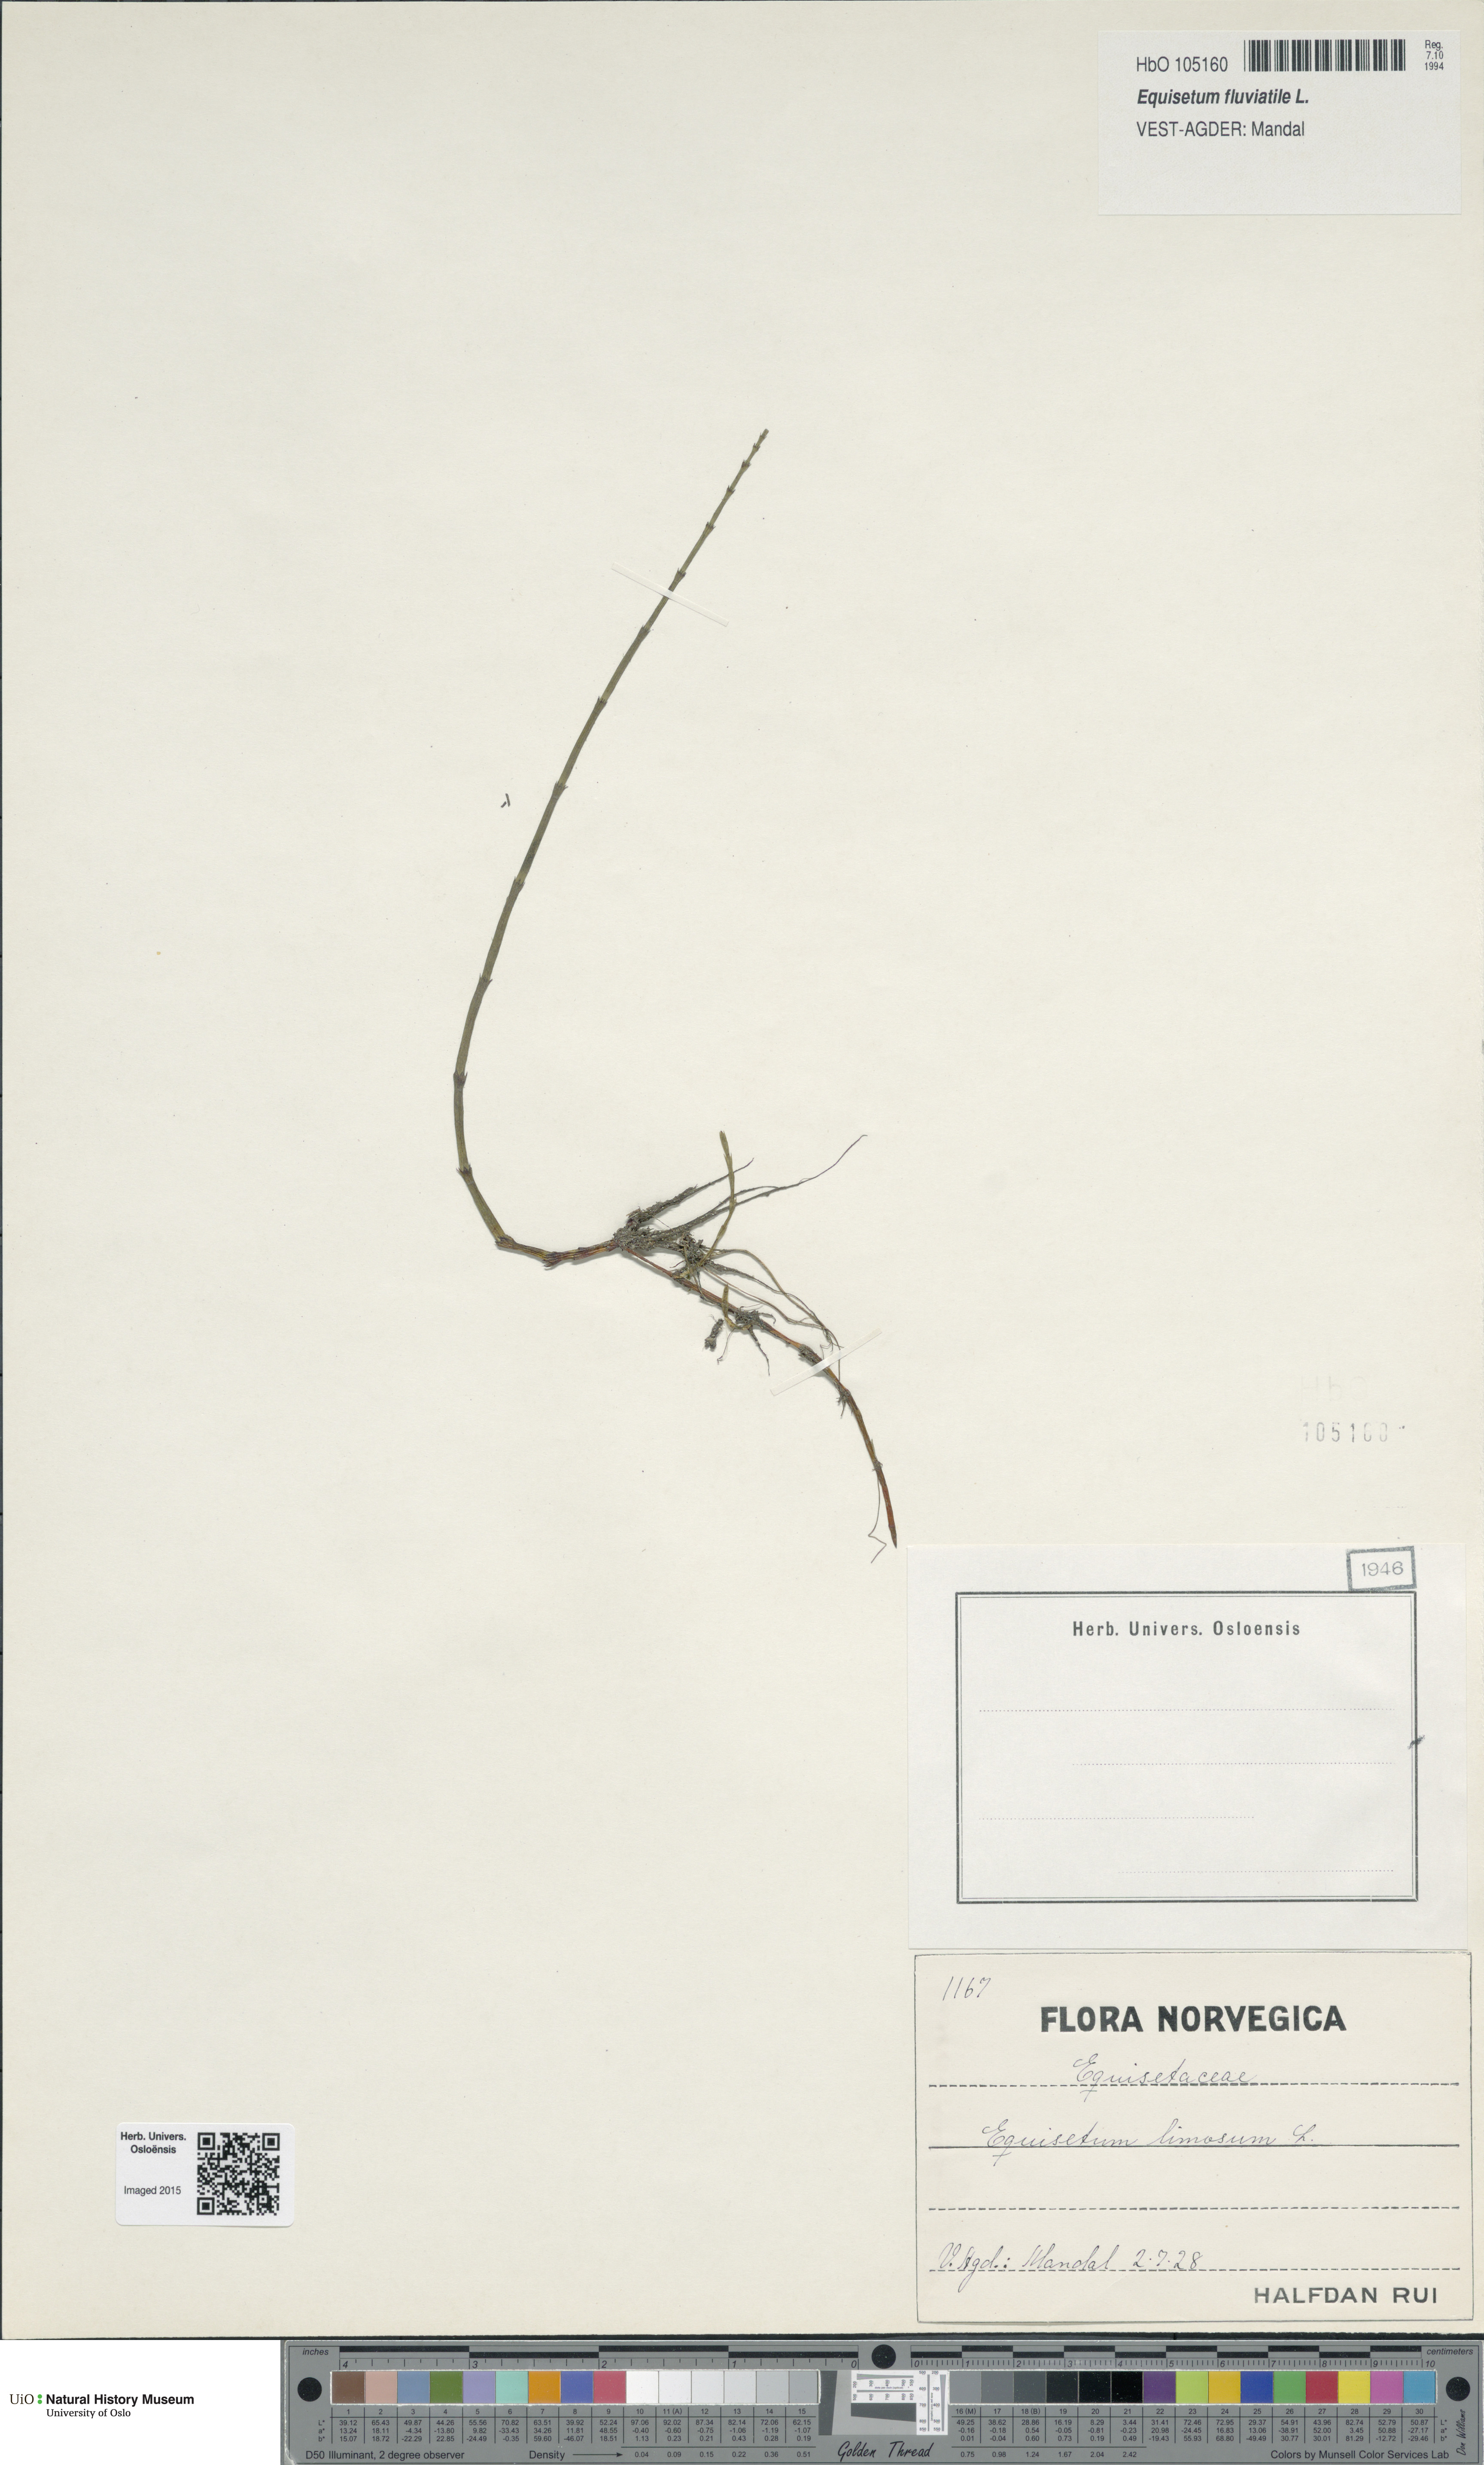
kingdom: Plantae
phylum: Tracheophyta
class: Polypodiopsida
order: Equisetales
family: Equisetaceae
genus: Equisetum
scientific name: Equisetum fluviatile
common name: Water horsetail
